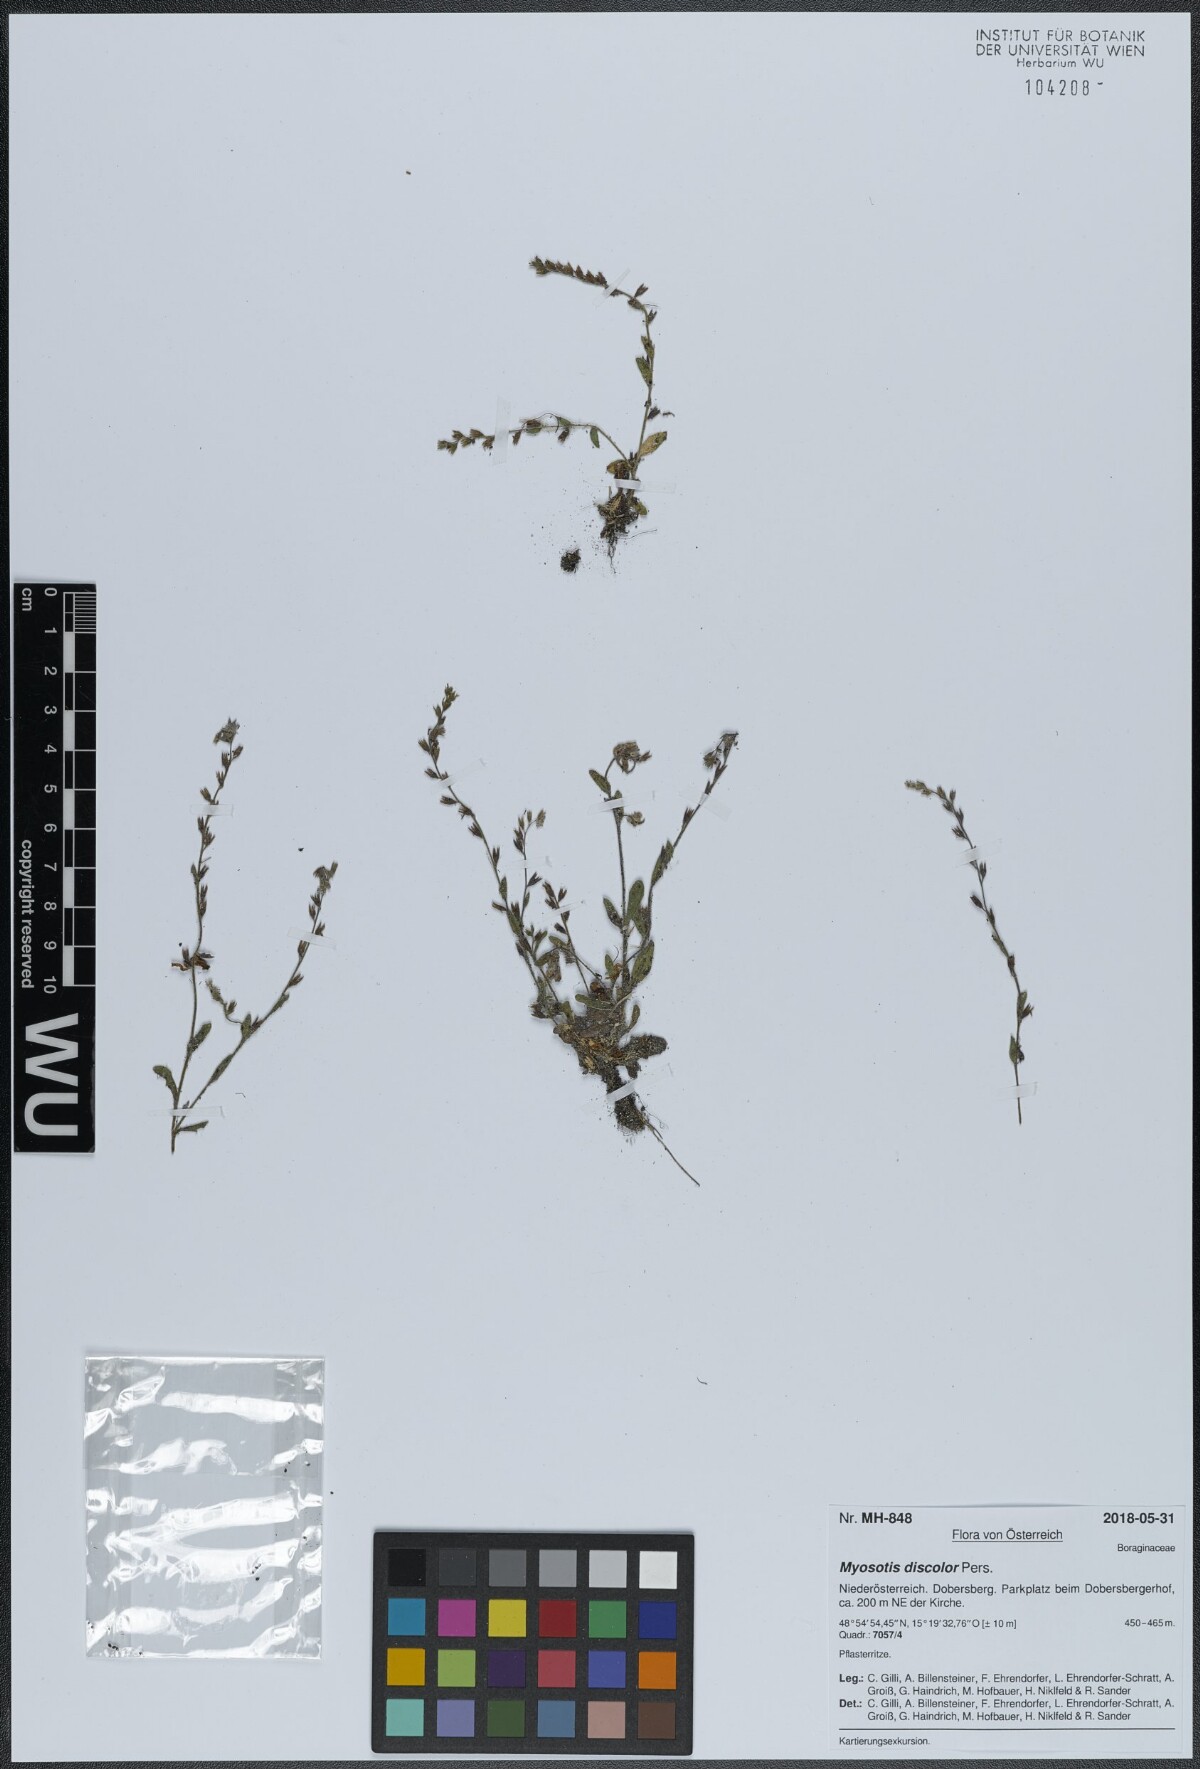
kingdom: Plantae
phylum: Tracheophyta
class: Magnoliopsida
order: Boraginales
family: Boraginaceae
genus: Myosotis
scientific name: Myosotis discolor
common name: Changing forget-me-not
